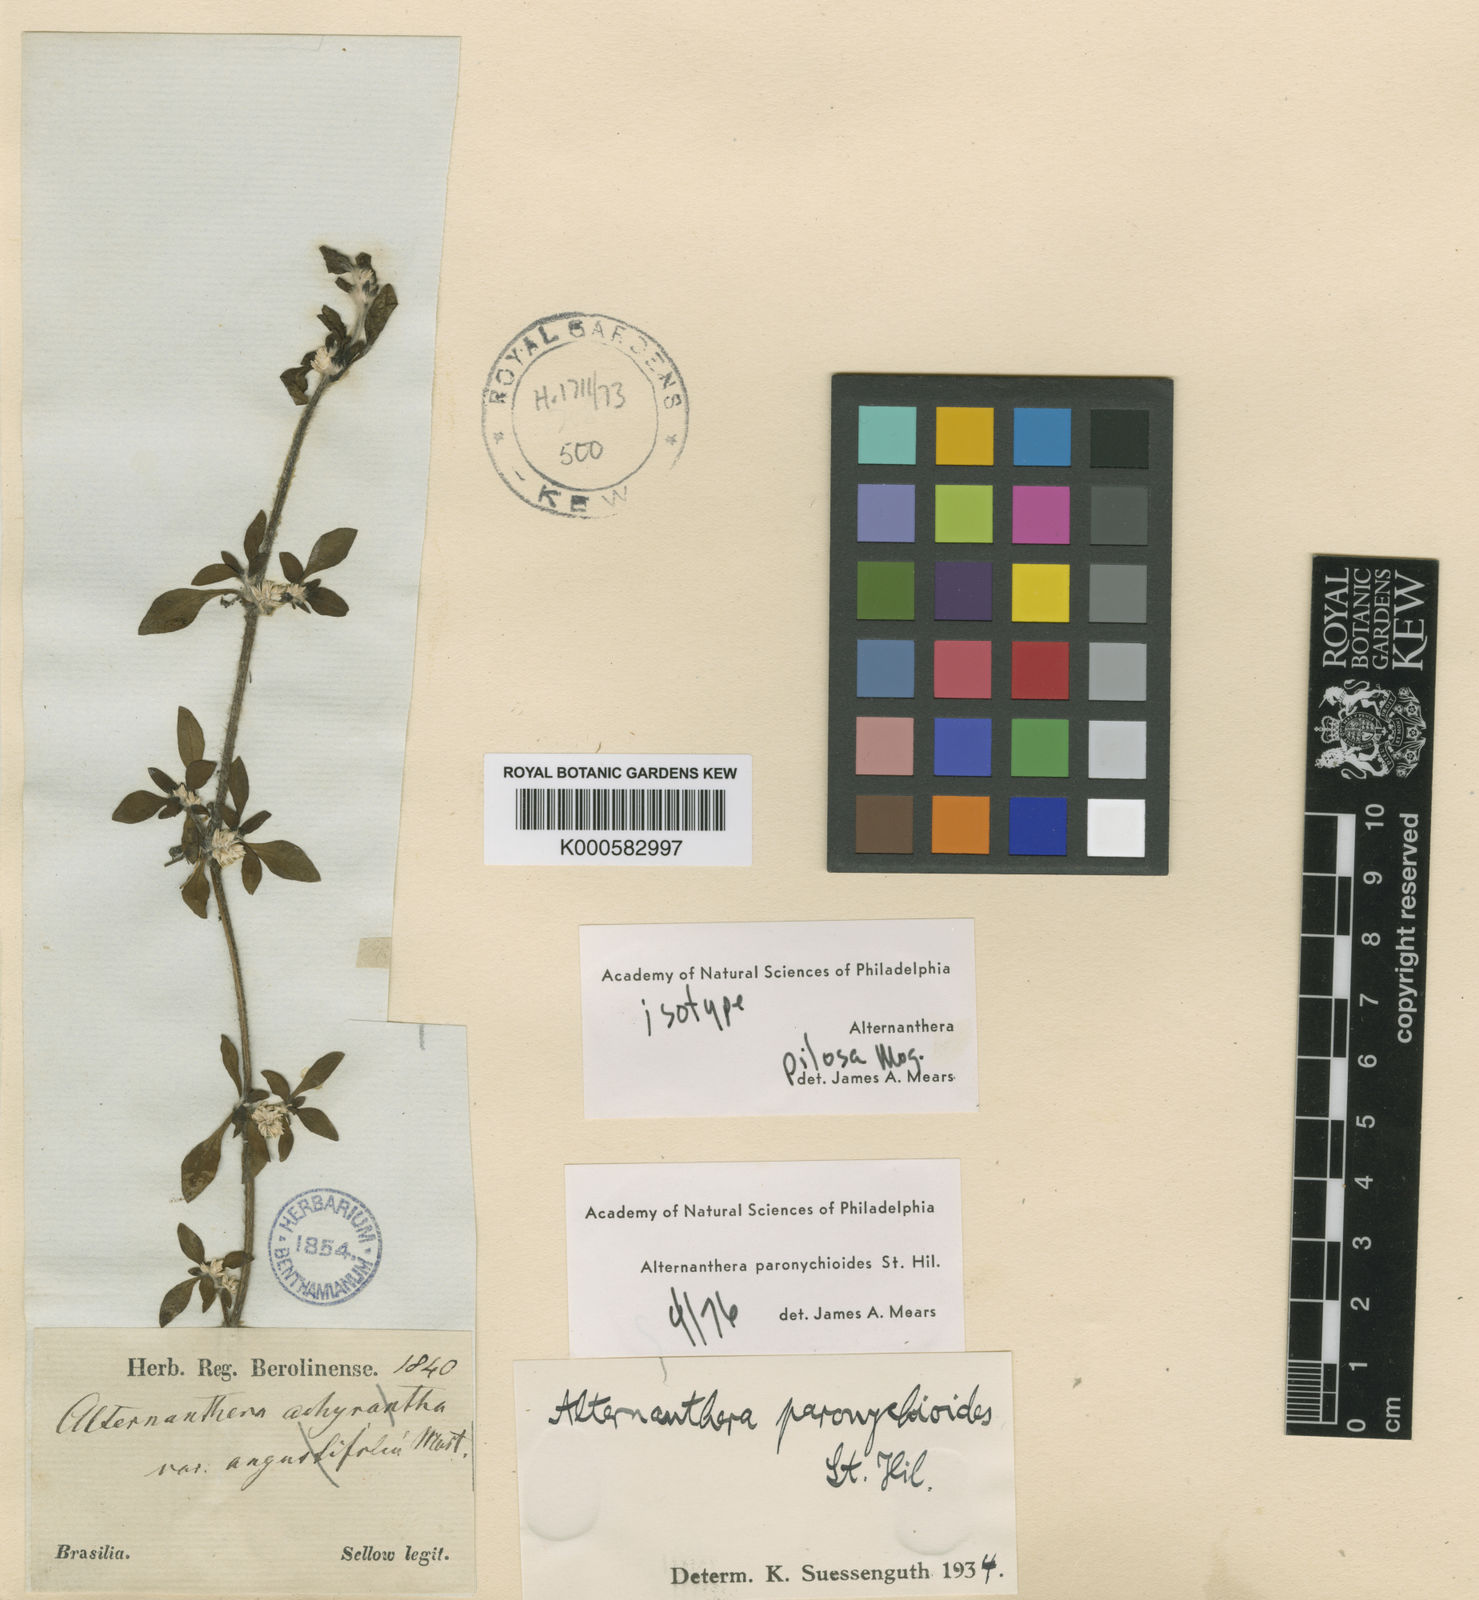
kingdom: Plantae
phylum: Tracheophyta
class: Magnoliopsida
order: Caryophyllales
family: Amaranthaceae
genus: Alternanthera
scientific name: Alternanthera paronychioides
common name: Smooth joyweed
